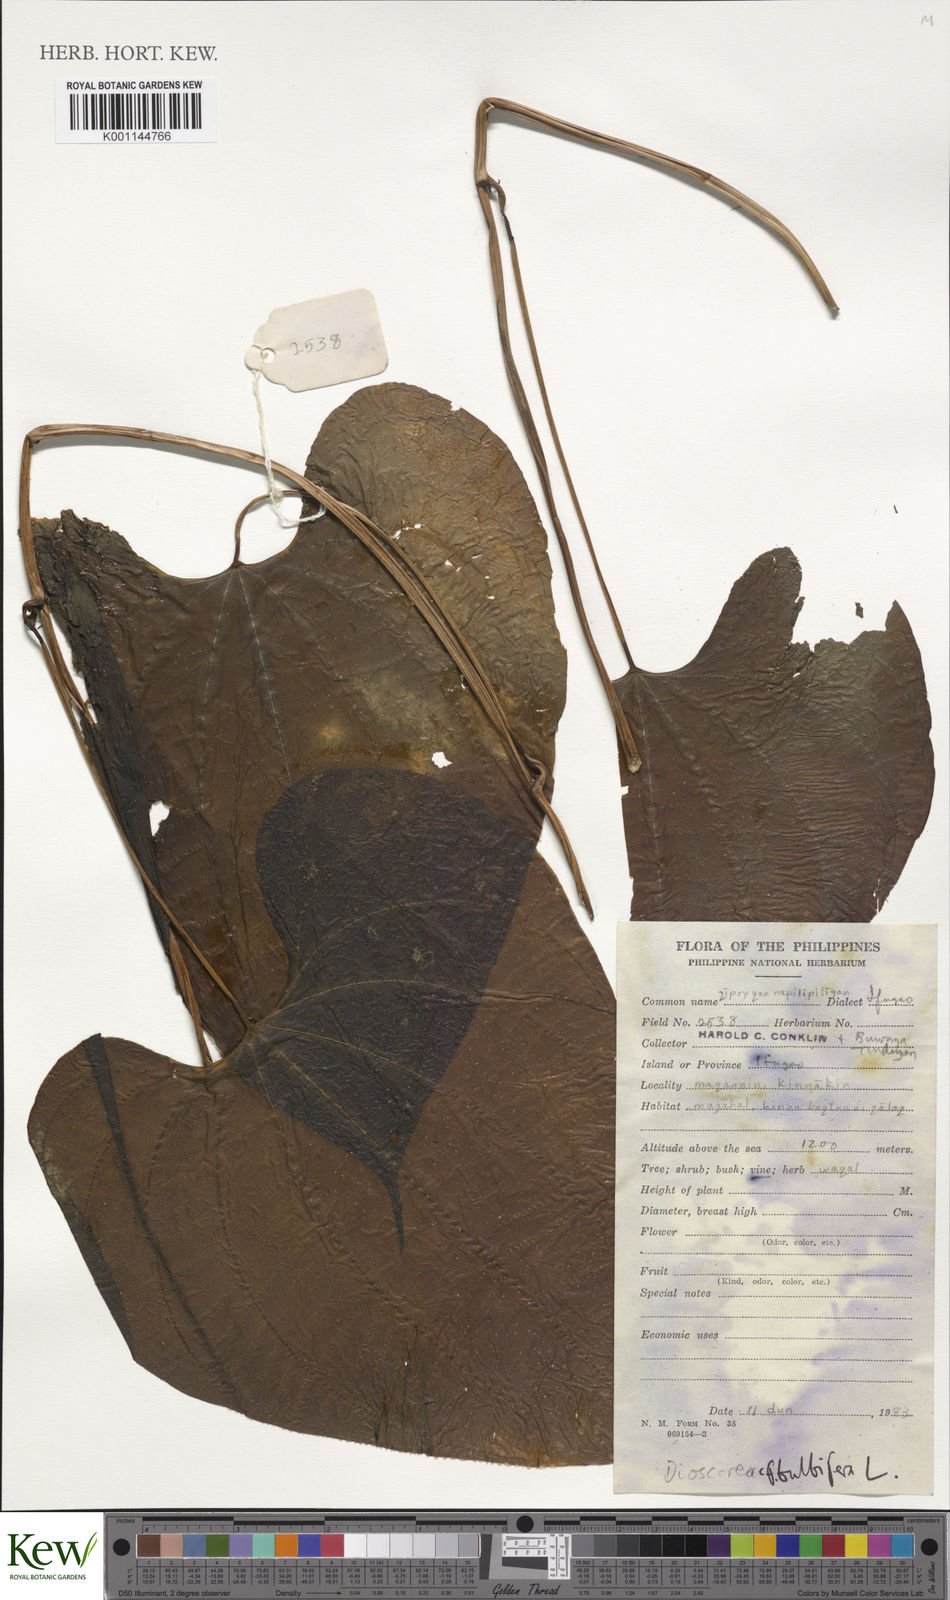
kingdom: Plantae
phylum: Tracheophyta
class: Liliopsida
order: Dioscoreales
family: Dioscoreaceae
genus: Dioscorea
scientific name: Dioscorea bulbifera
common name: Air yam
